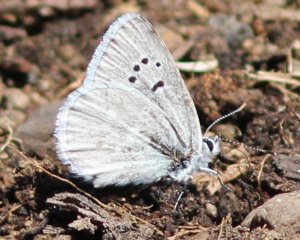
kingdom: Animalia
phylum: Arthropoda
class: Insecta
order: Lepidoptera
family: Lycaenidae
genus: Lycaena
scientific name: Lycaena heteronea
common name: Blue Copper
